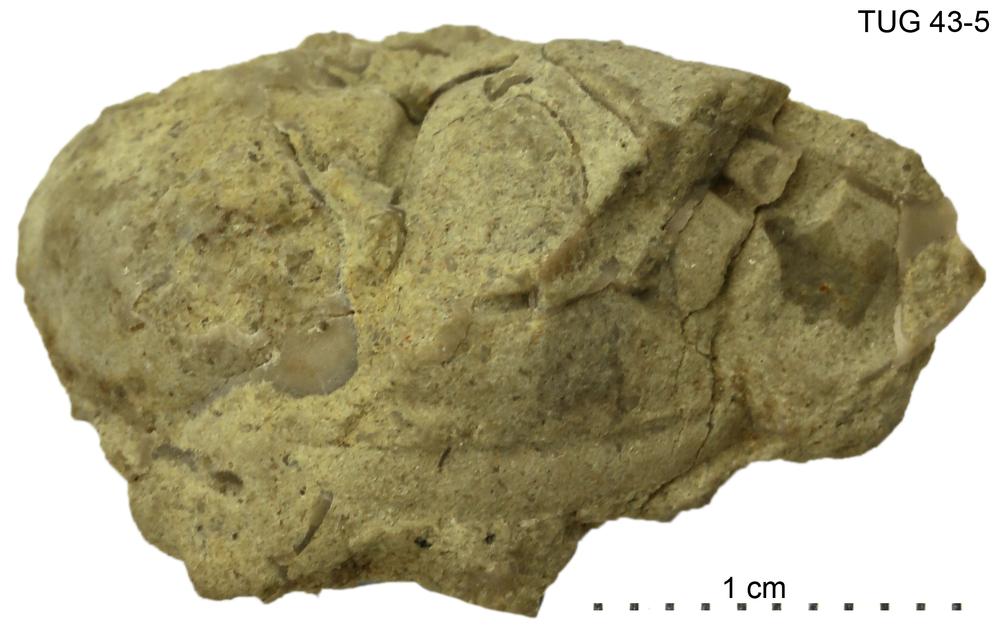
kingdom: Animalia
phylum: Arthropoda
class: Trilobita
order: Phacopida
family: Pterygometopidae
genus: Chasmops
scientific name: Chasmops
